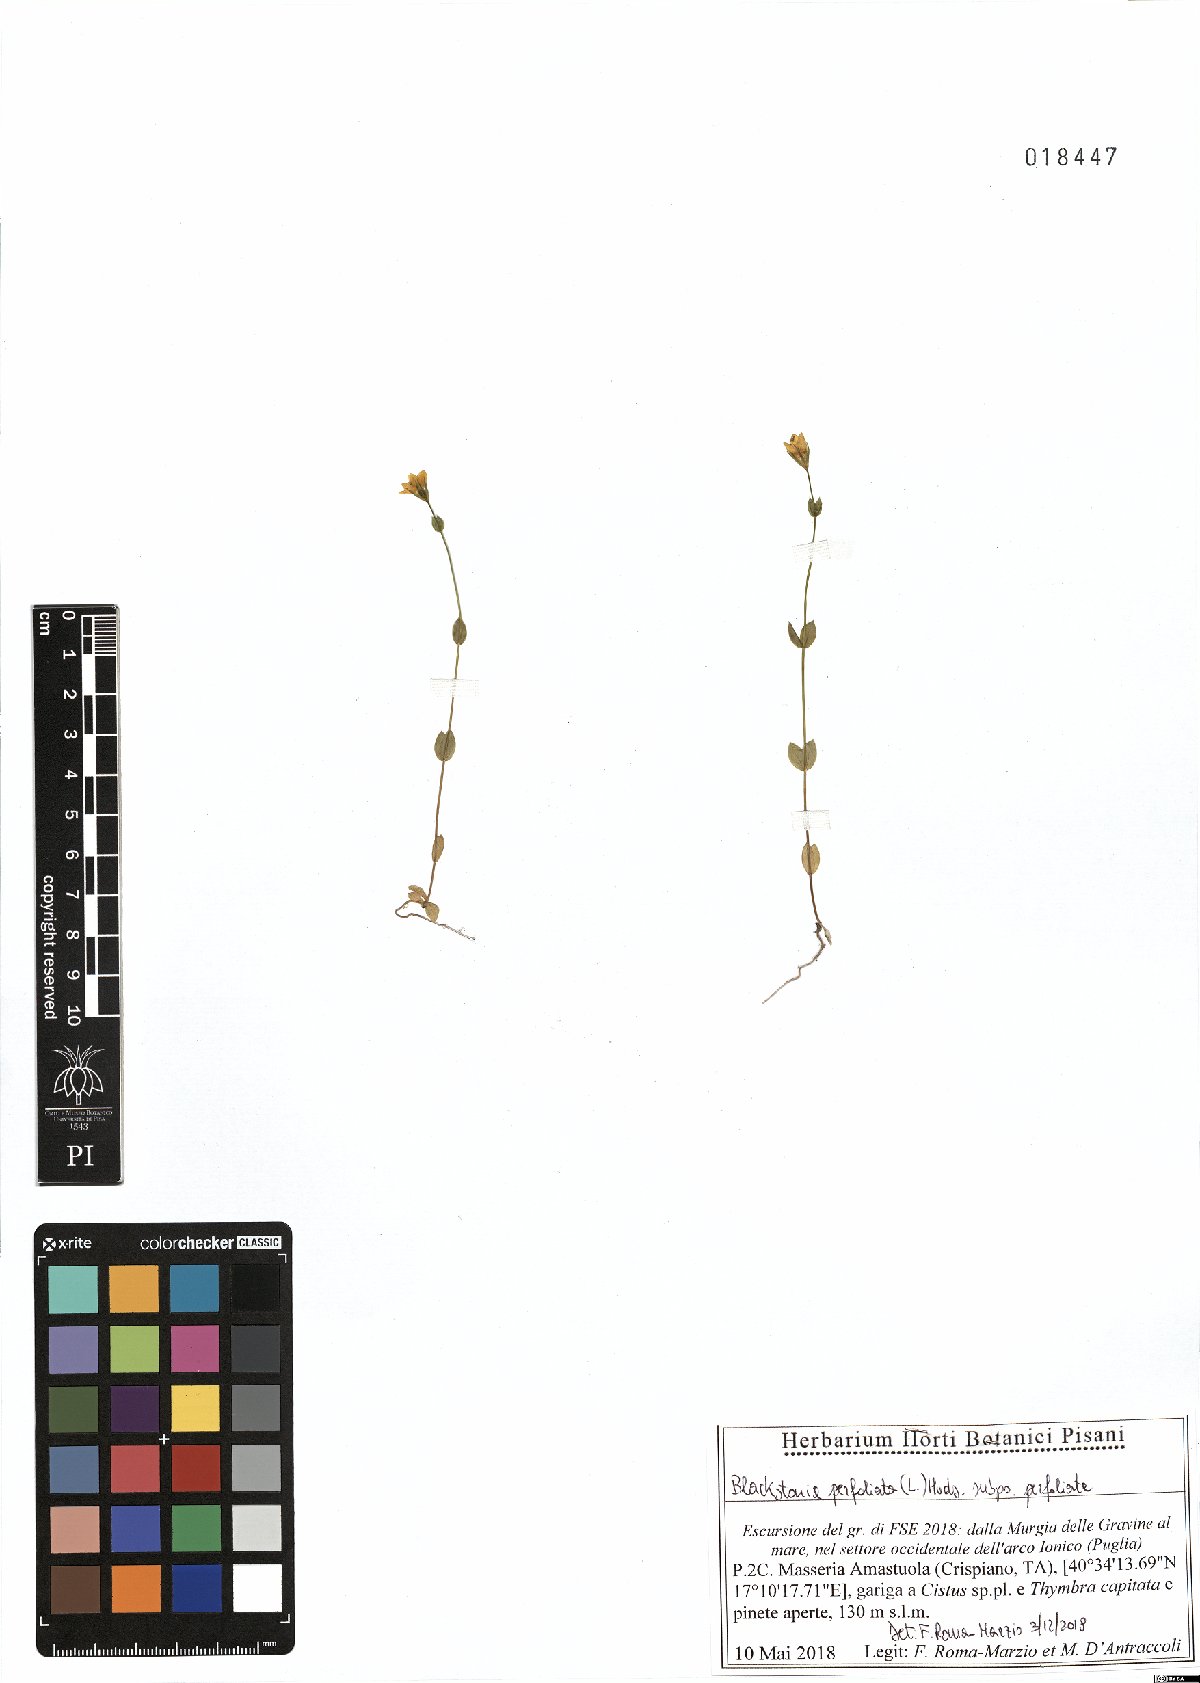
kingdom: Plantae
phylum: Tracheophyta
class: Magnoliopsida
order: Gentianales
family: Gentianaceae
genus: Blackstonia
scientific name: Blackstonia perfoliata
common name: Yellow-wort
